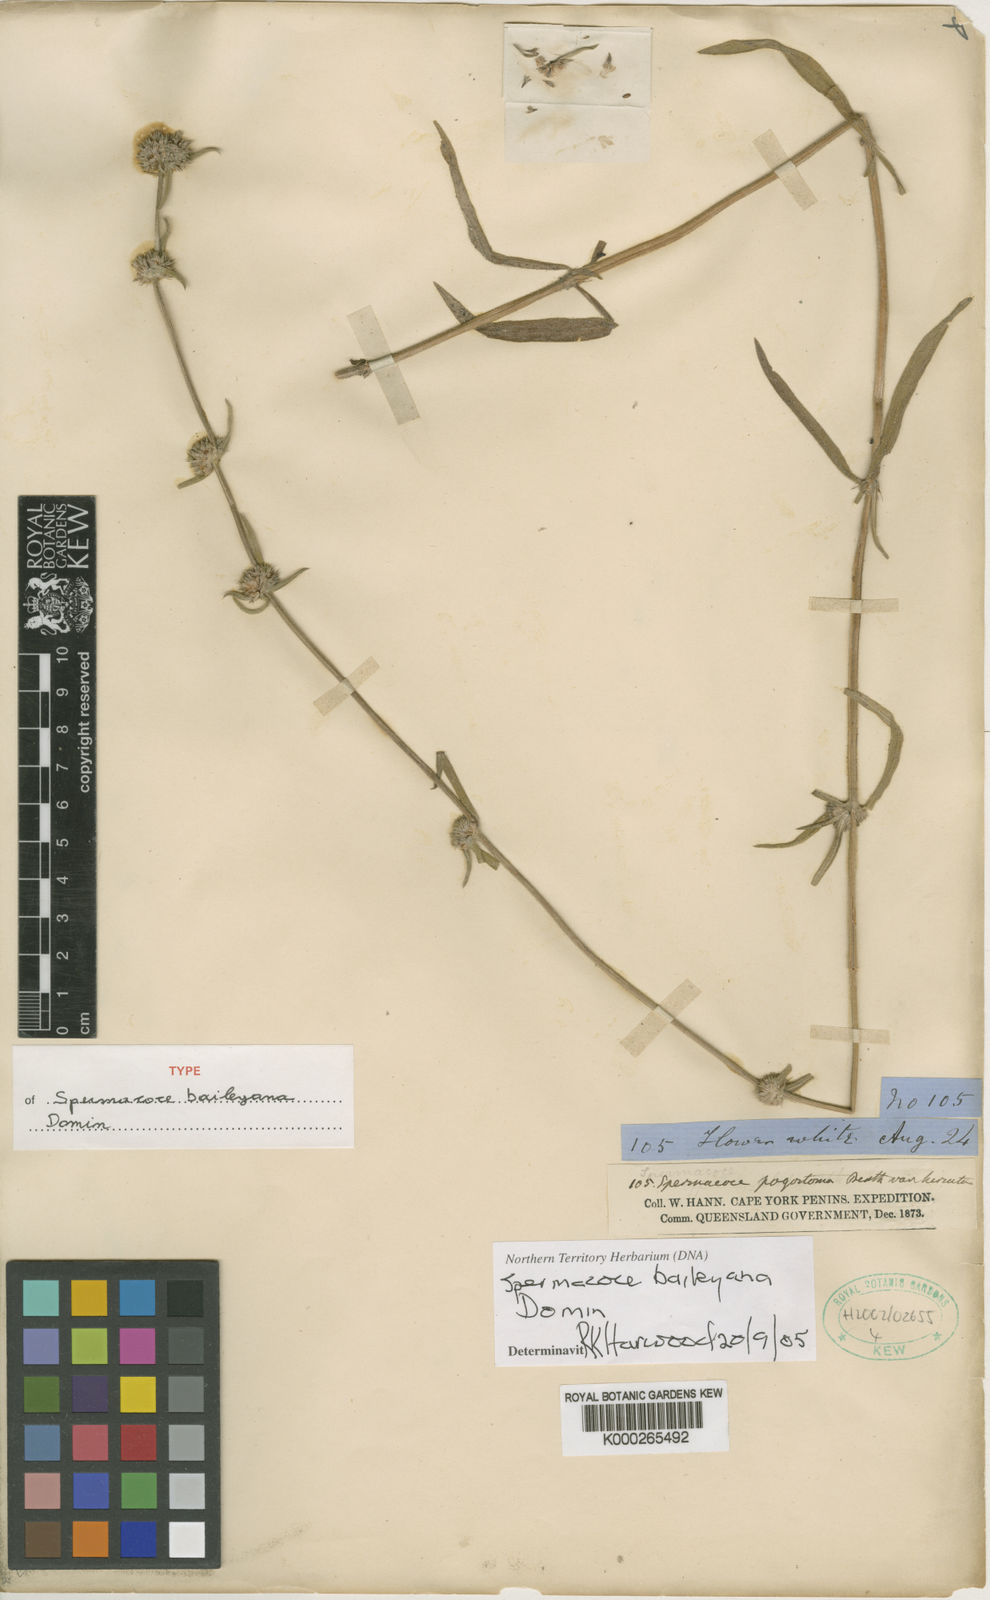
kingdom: Plantae
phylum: Tracheophyta
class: Magnoliopsida
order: Gentianales
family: Rubiaceae
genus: Spermacoce
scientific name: Spermacoce baileyana
